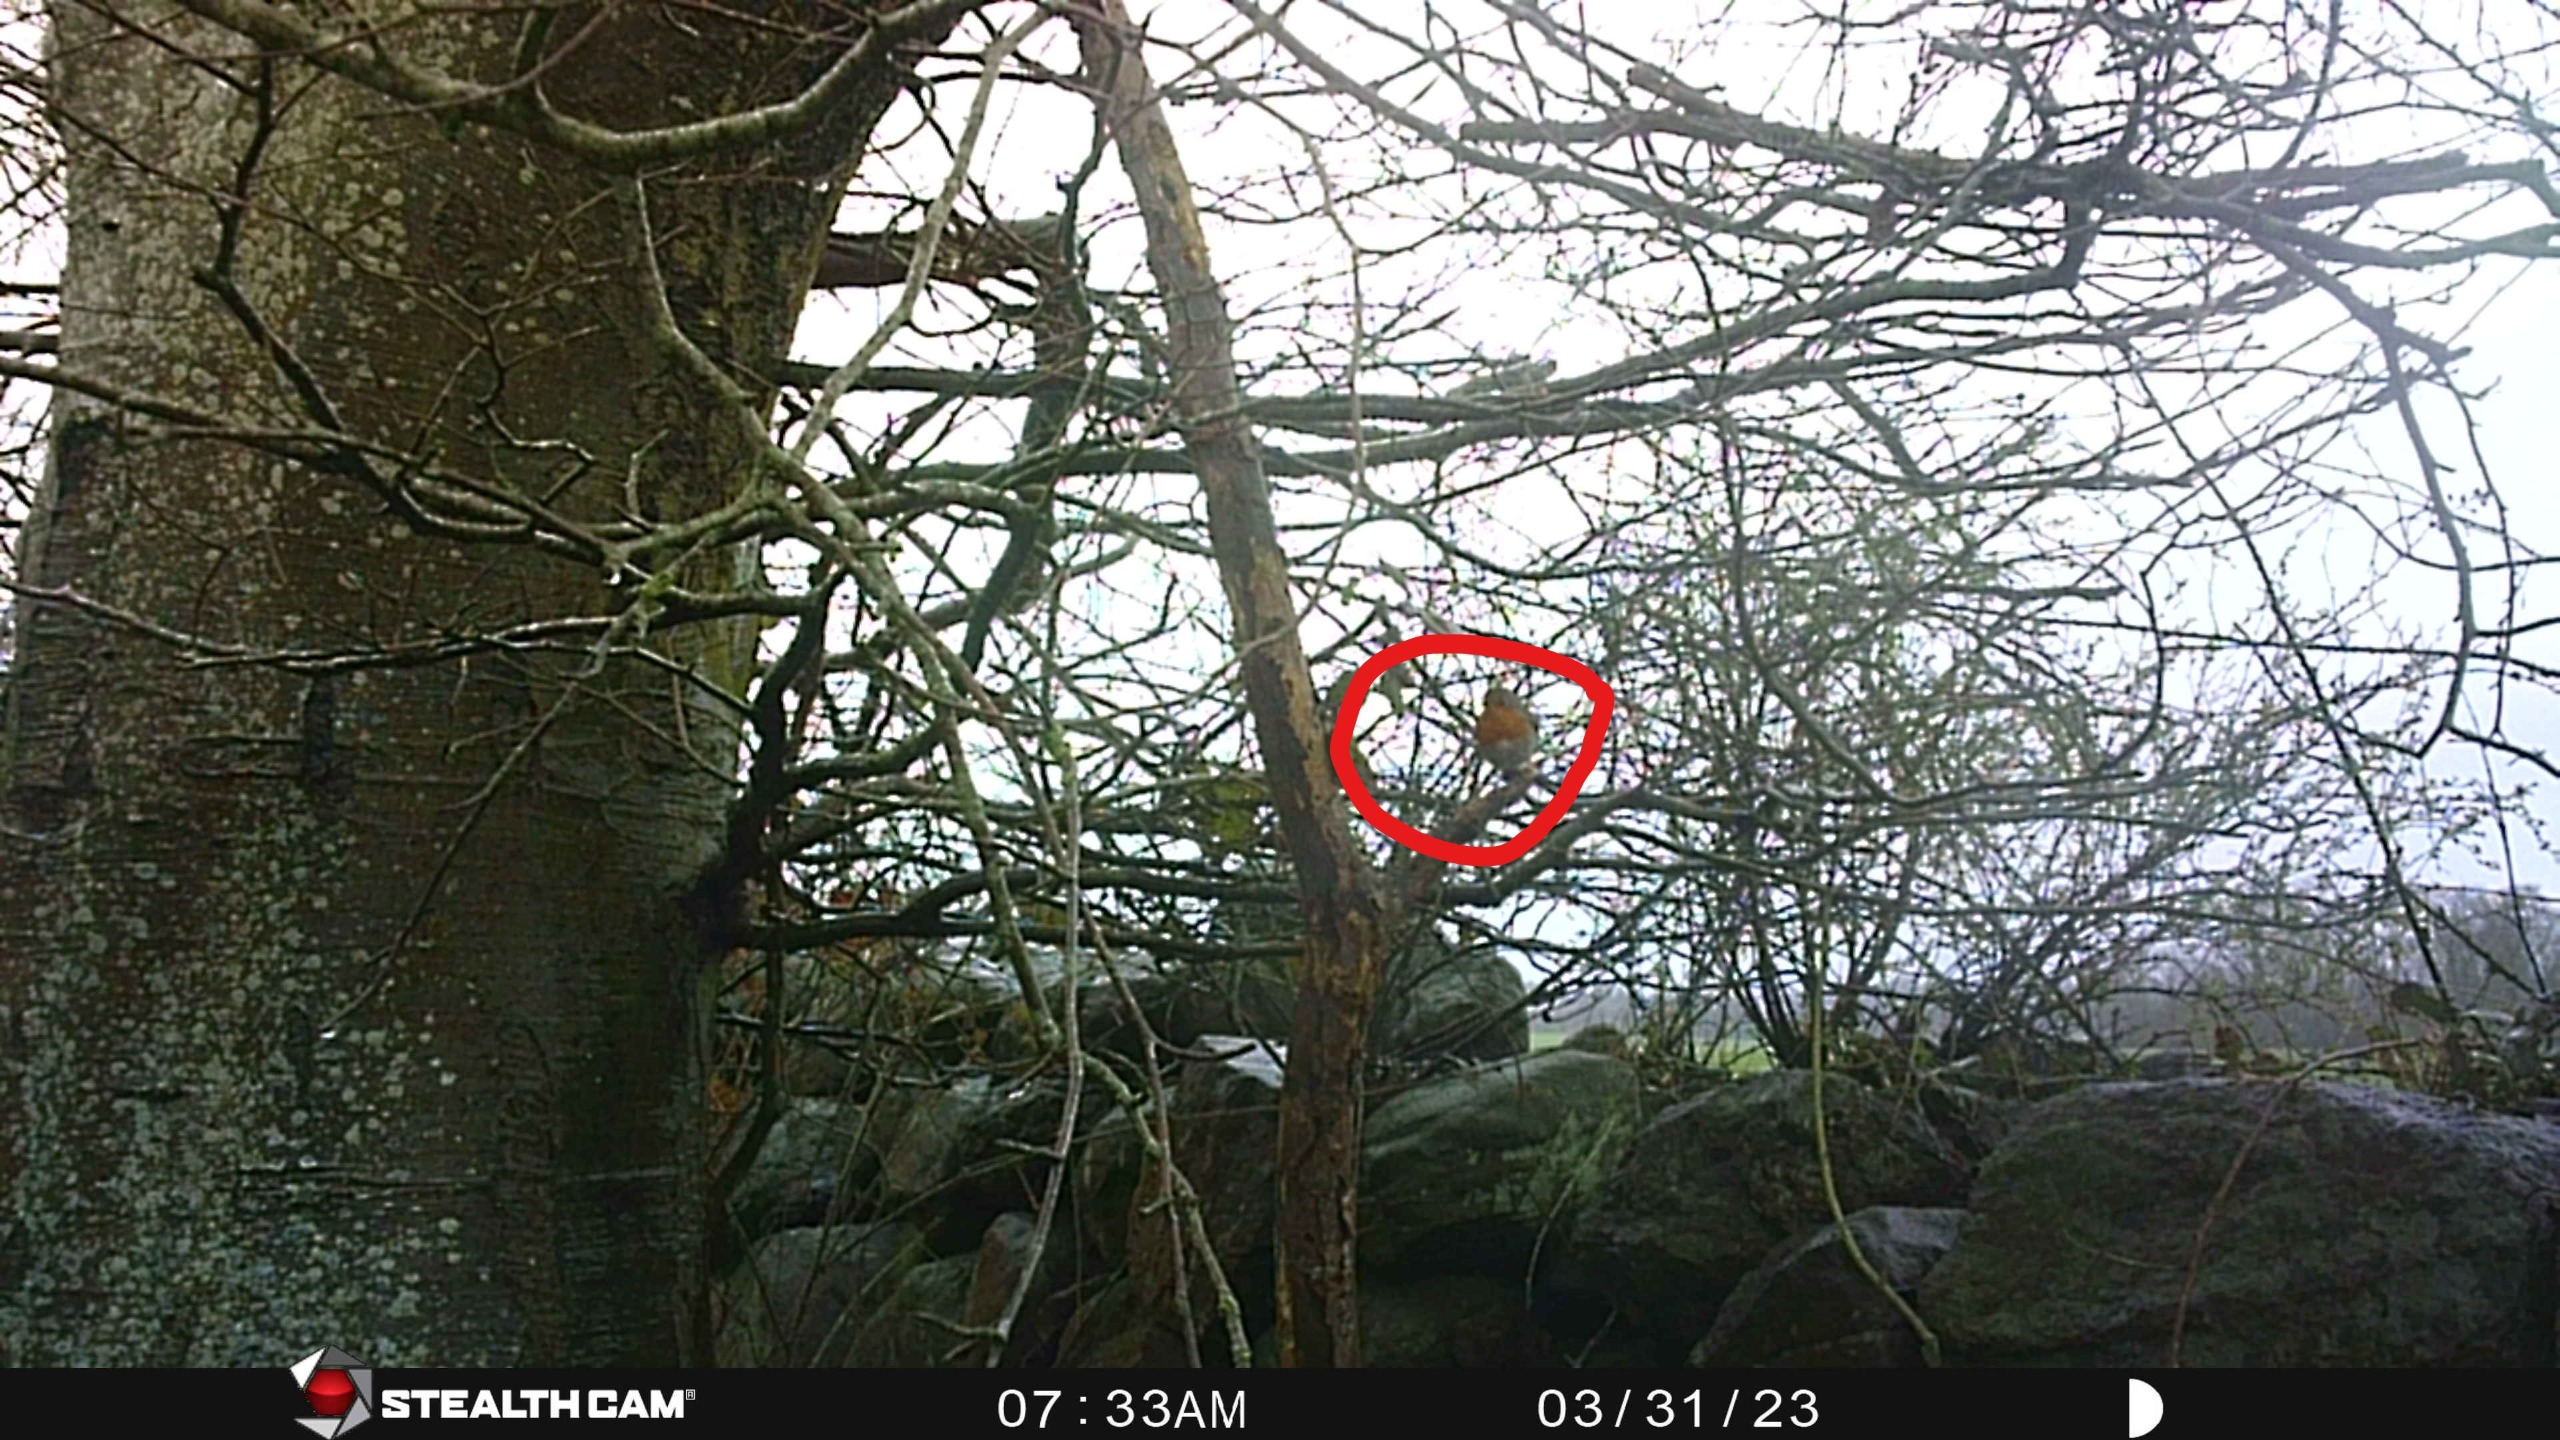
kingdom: Animalia
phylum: Chordata
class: Aves
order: Passeriformes
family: Muscicapidae
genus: Erithacus
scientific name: Erithacus rubecula
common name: Rødhals/rødkælk
